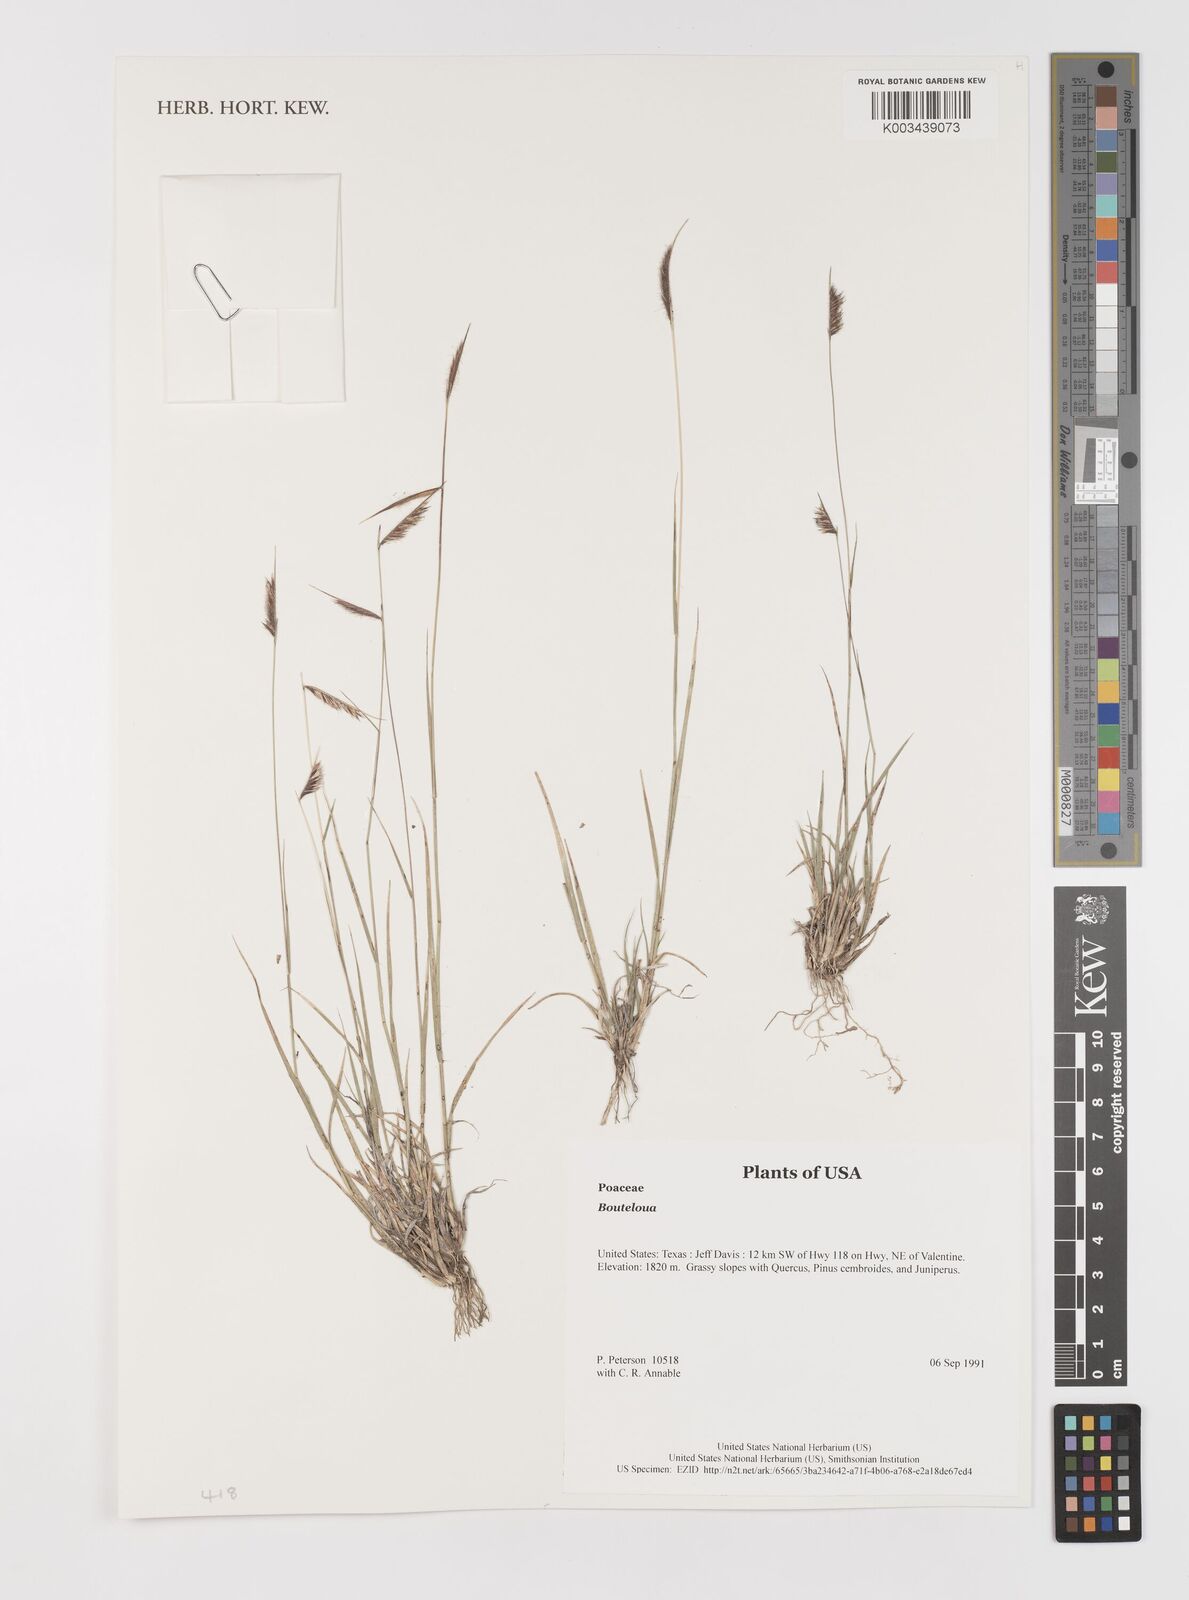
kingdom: Plantae
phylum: Tracheophyta
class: Liliopsida
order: Poales
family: Poaceae
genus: Bouteloua
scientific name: Bouteloua
